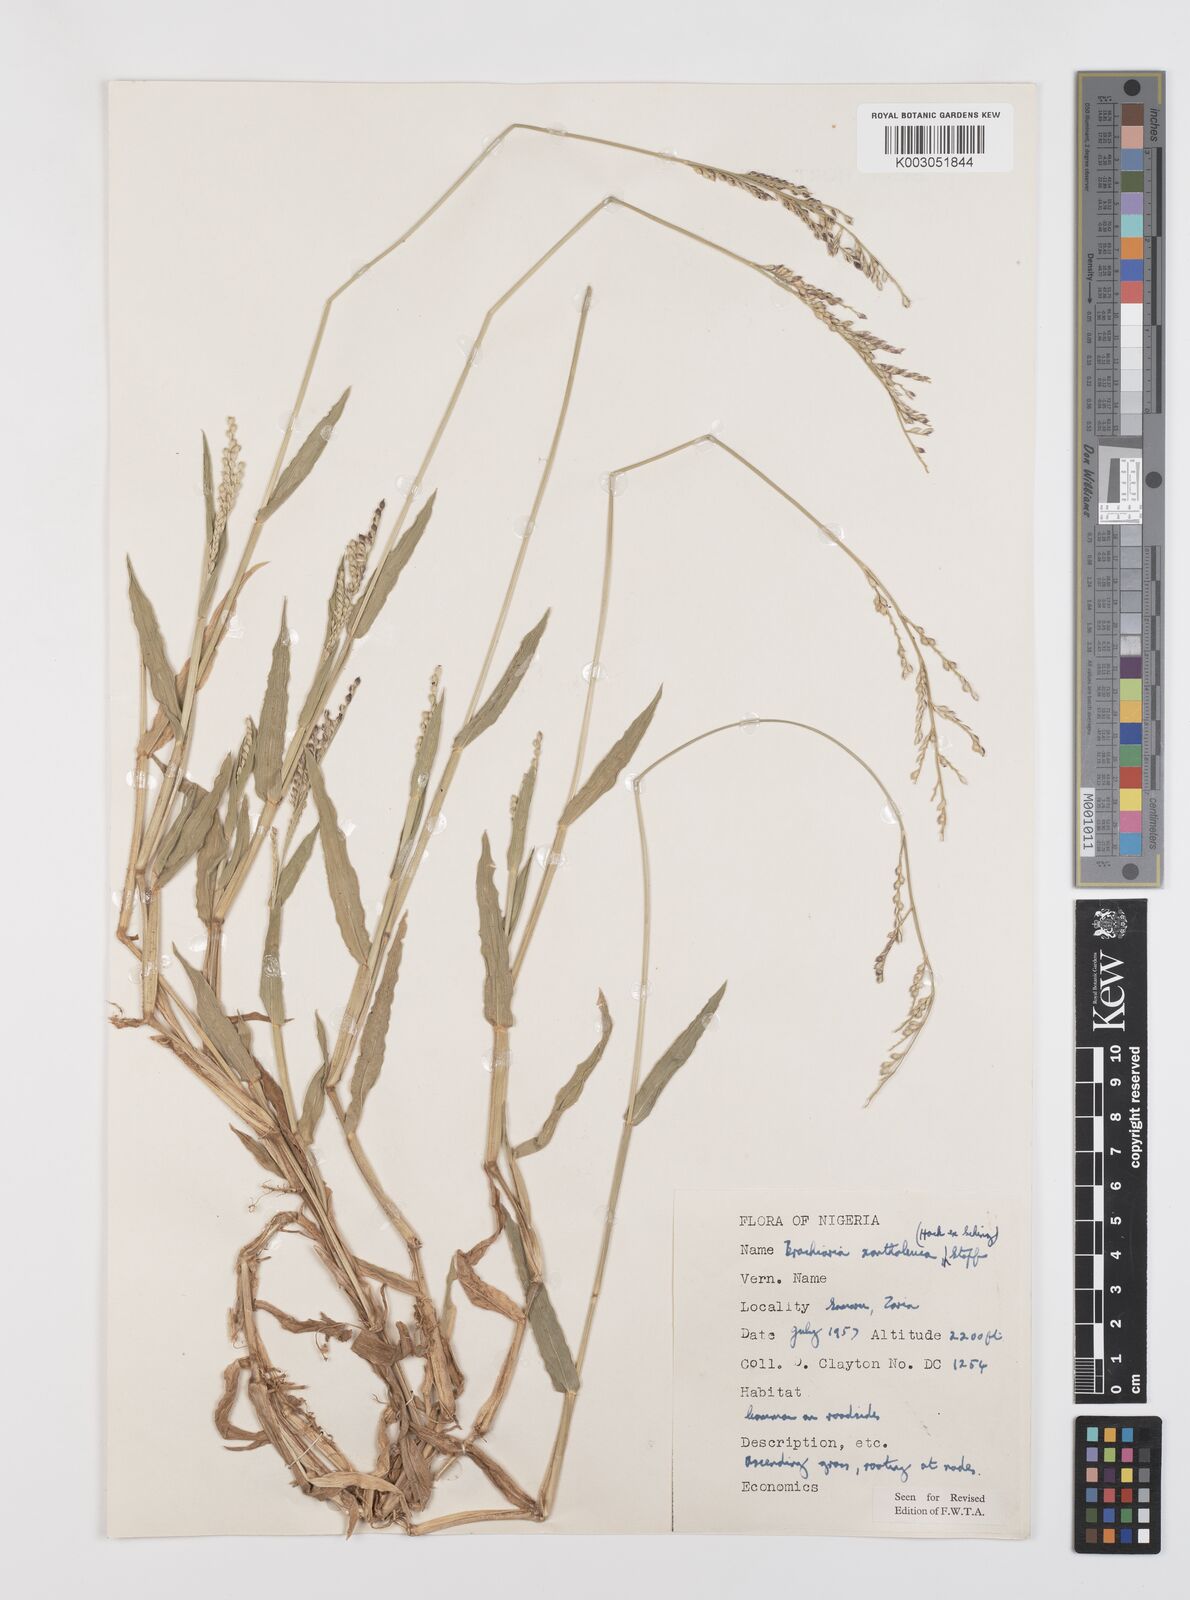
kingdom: Plantae
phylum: Tracheophyta
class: Liliopsida
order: Poales
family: Poaceae
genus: Urochloa
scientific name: Urochloa xantholeuca
